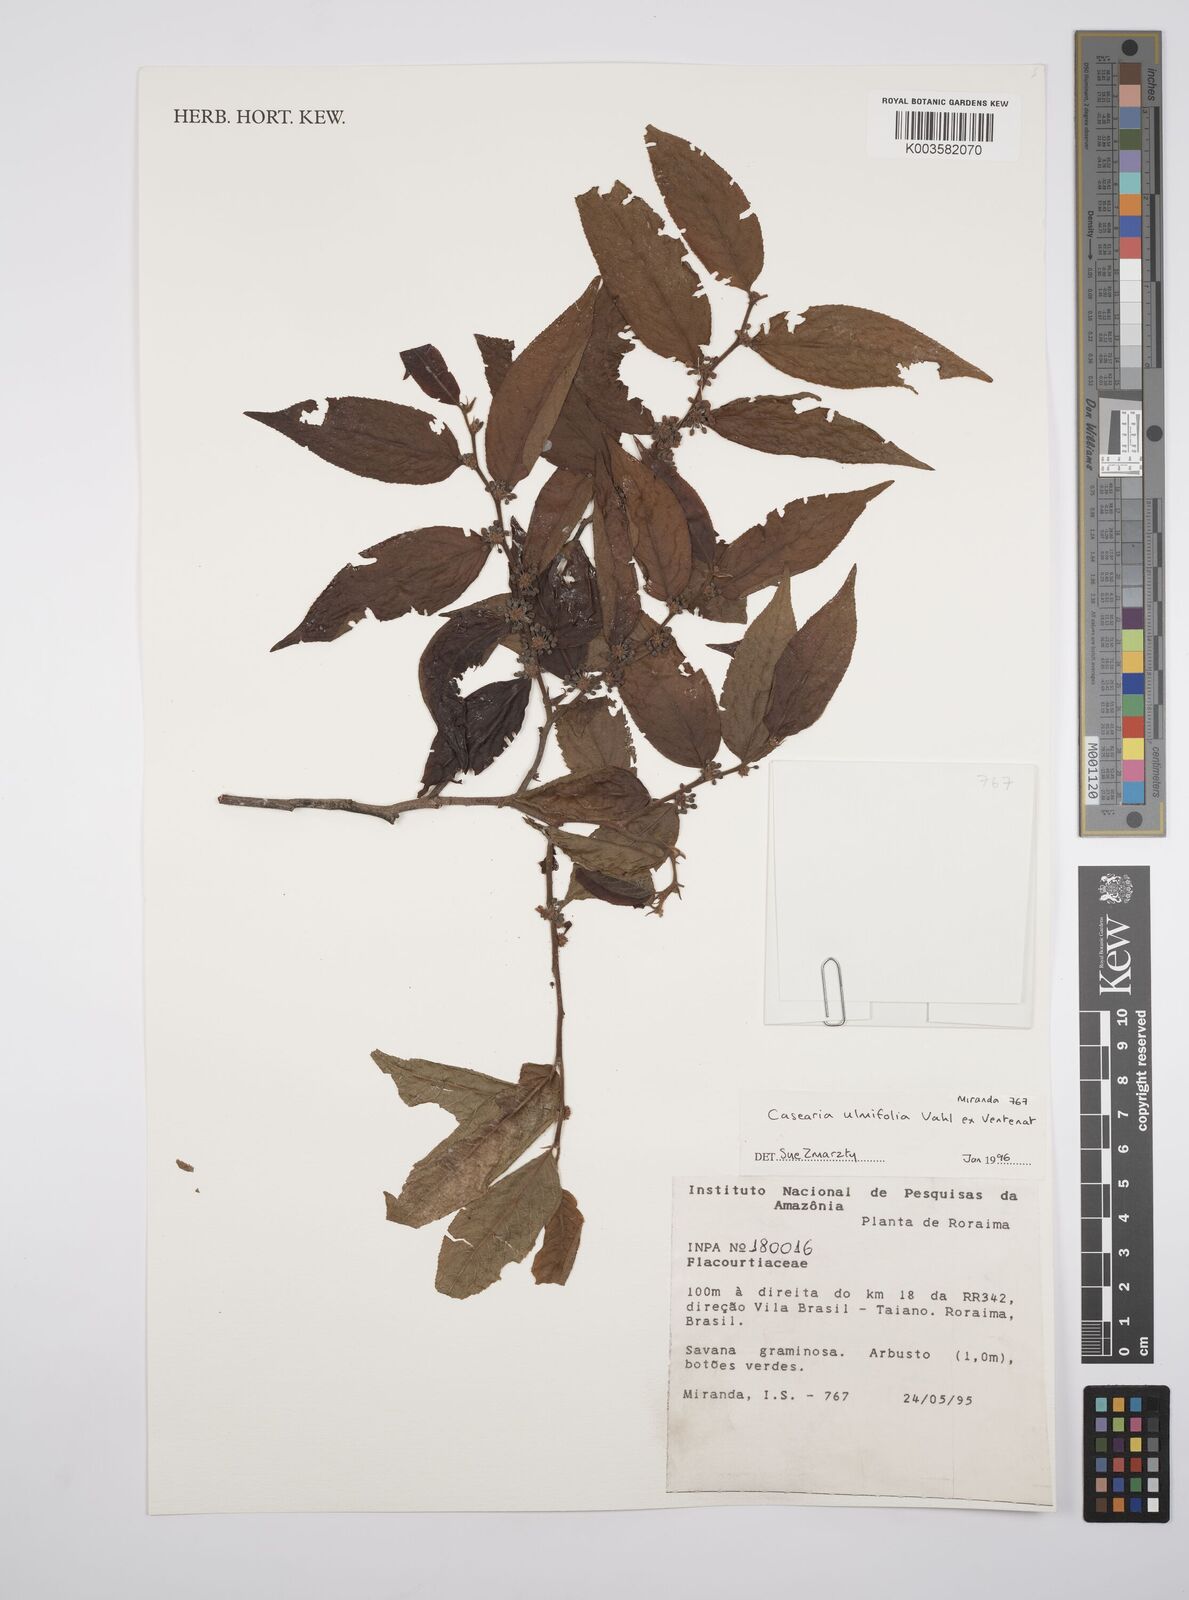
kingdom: Plantae
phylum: Tracheophyta
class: Magnoliopsida
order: Malpighiales
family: Salicaceae
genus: Casearia
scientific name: Casearia ulmifolia
